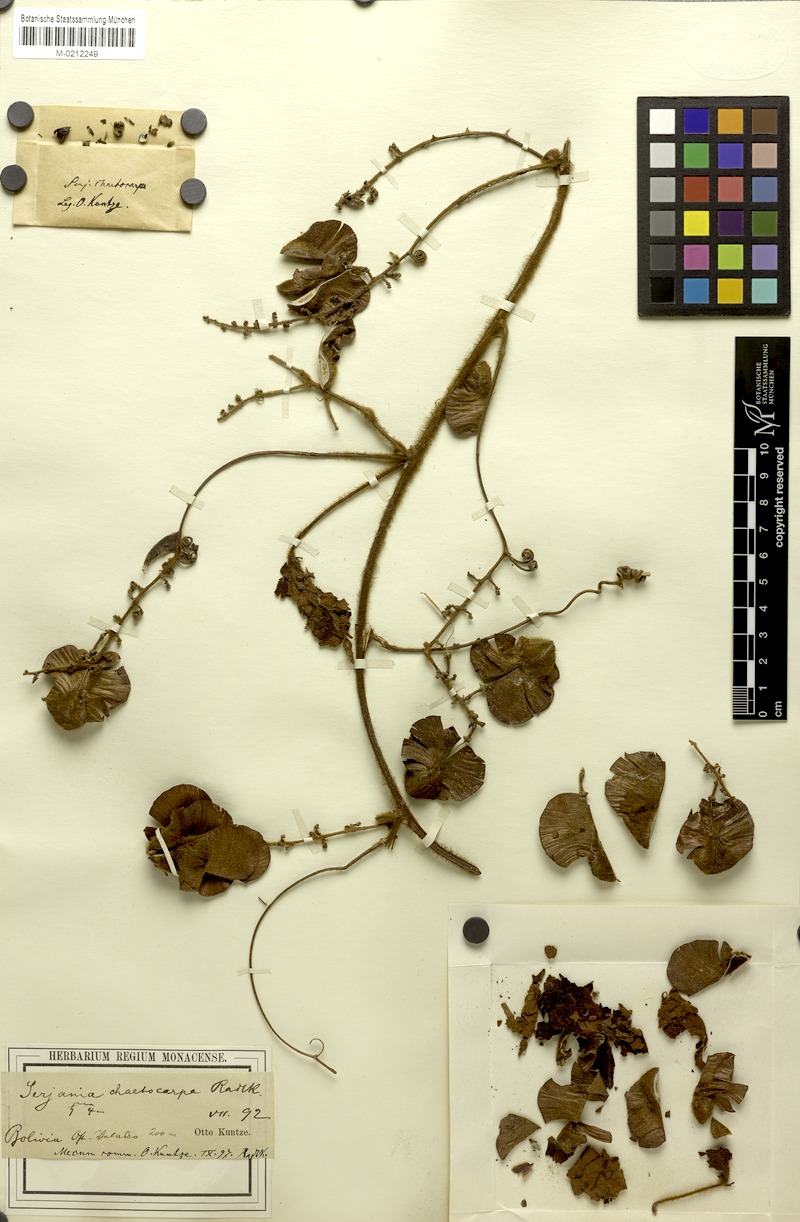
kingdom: Plantae
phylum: Tracheophyta
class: Magnoliopsida
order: Sapindales
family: Sapindaceae
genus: Serjania
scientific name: Serjania chaetocarpa
